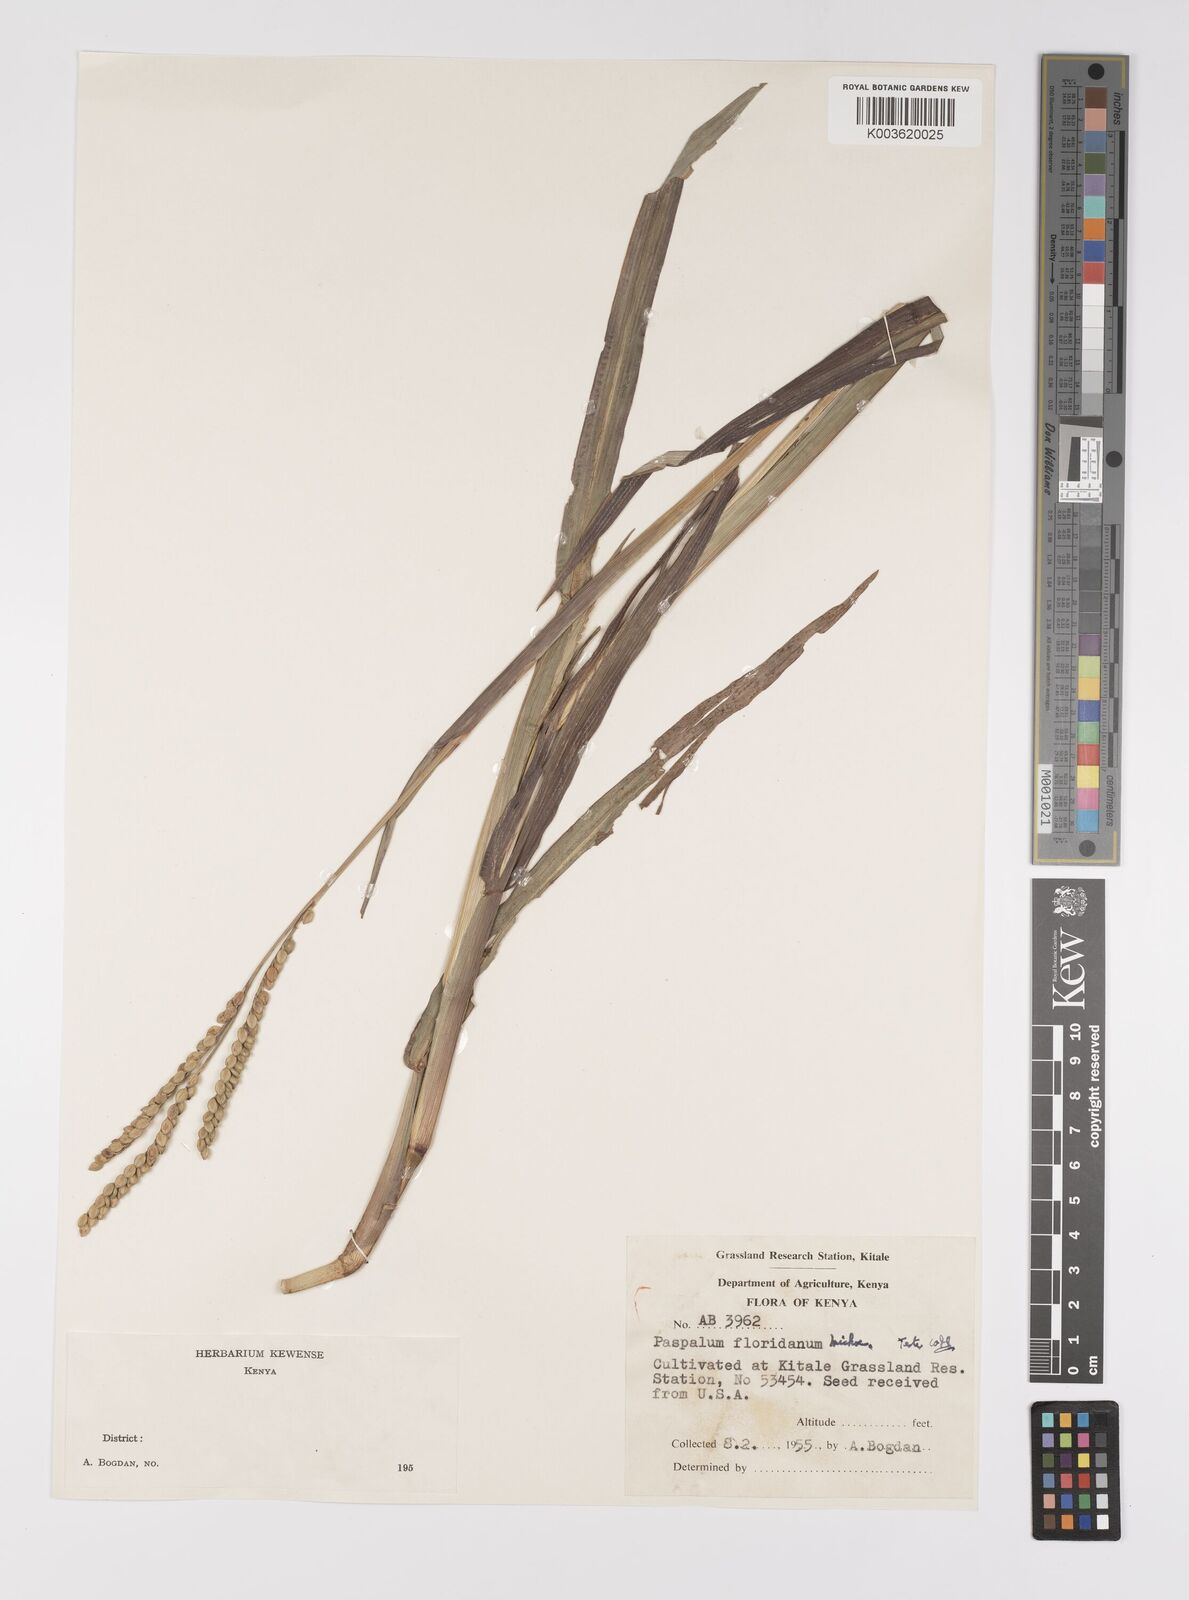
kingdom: Plantae
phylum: Tracheophyta
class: Liliopsida
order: Poales
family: Poaceae
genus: Paspalum
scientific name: Paspalum floridanum
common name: Florida paspalum
